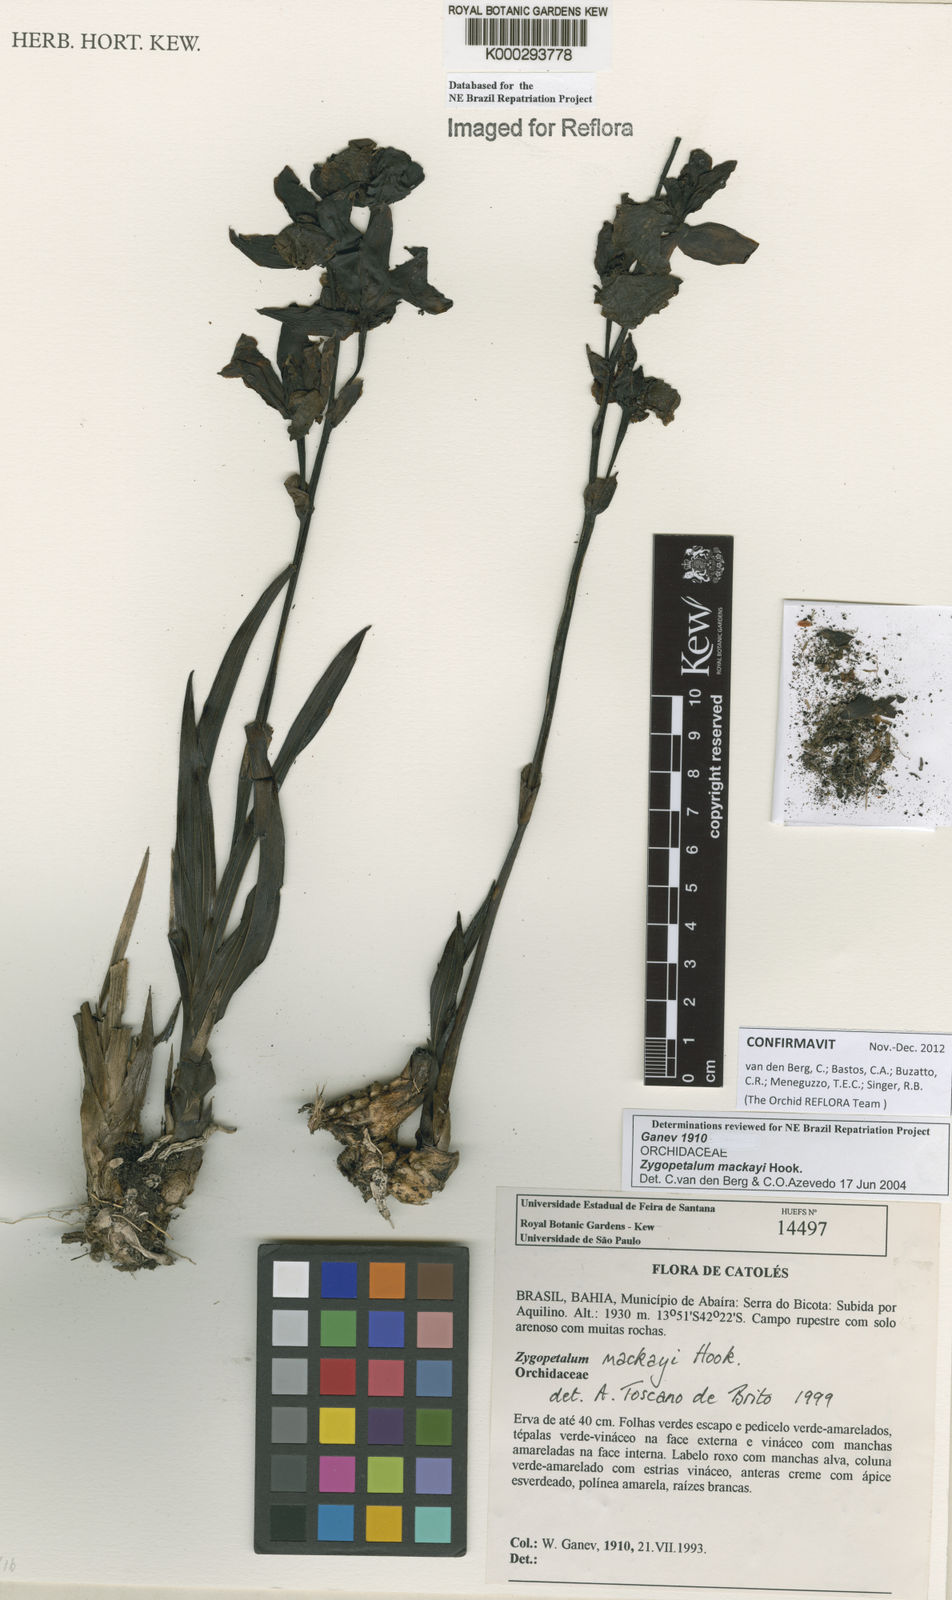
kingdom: Plantae
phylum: Tracheophyta
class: Liliopsida
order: Asparagales
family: Orchidaceae
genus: Zygopetalum
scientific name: Zygopetalum maculatum
